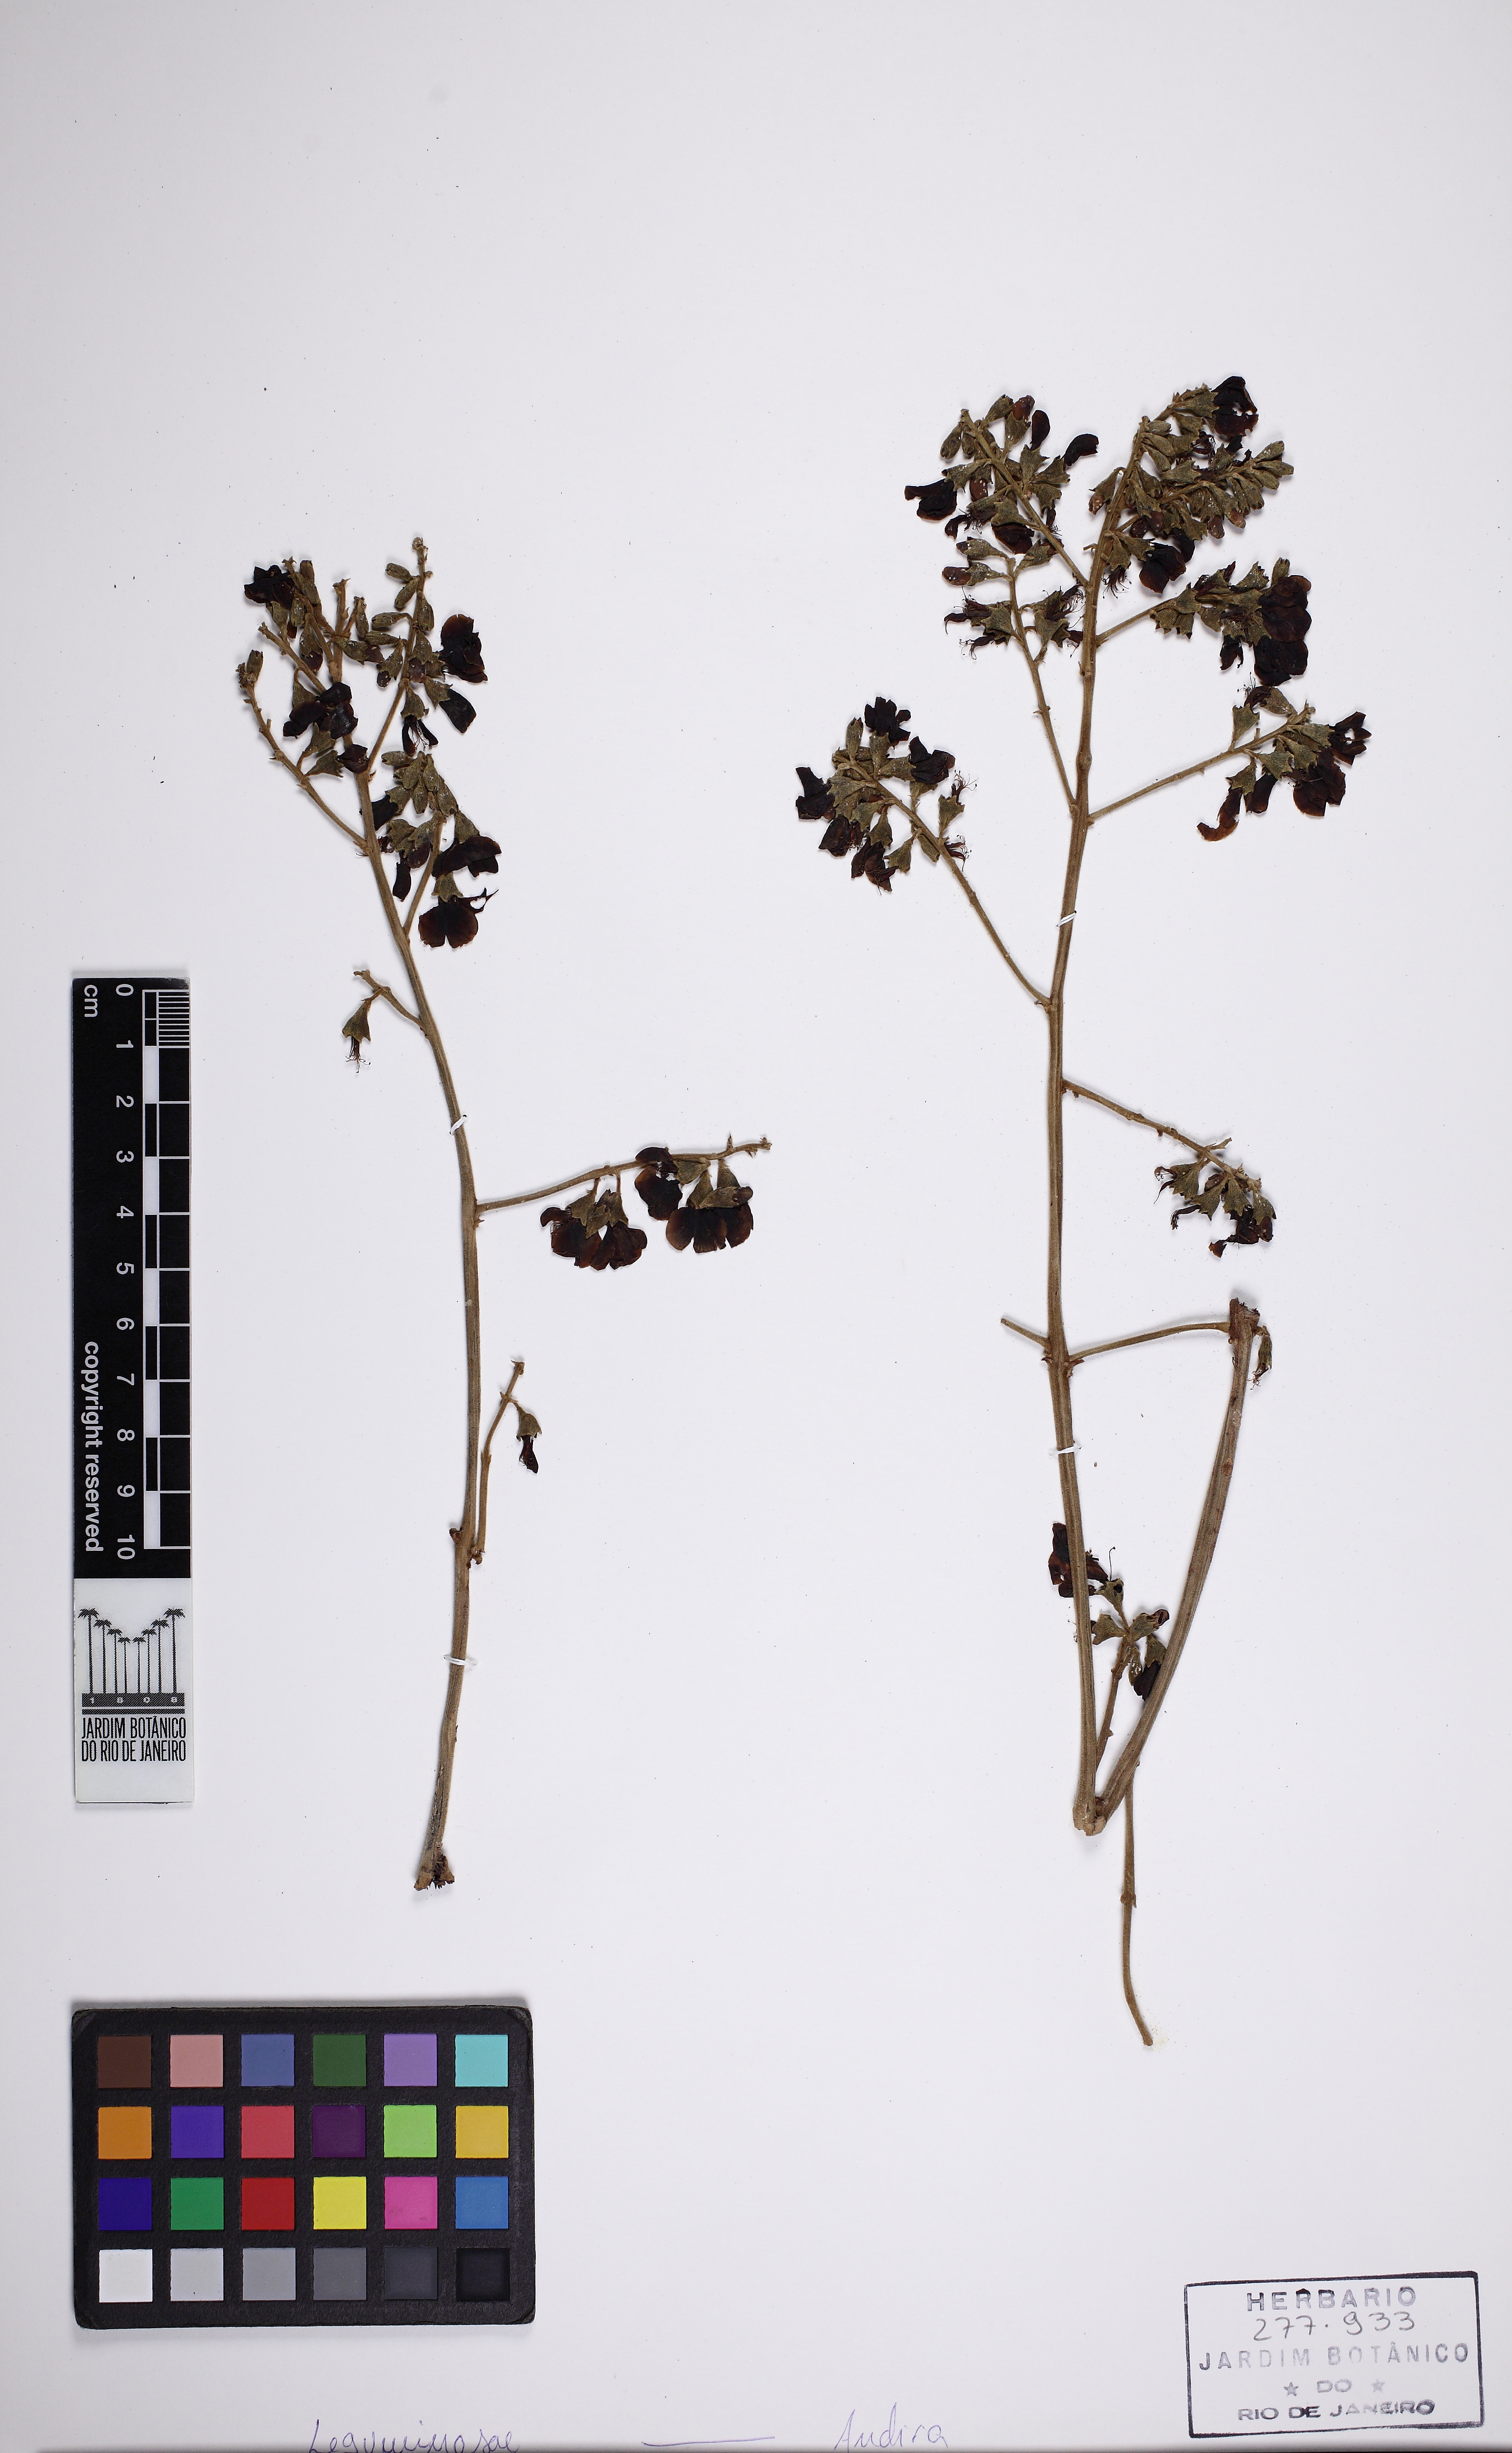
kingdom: Plantae
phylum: Tracheophyta
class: Magnoliopsida
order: Fabales
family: Fabaceae
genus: Andira
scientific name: Andira
